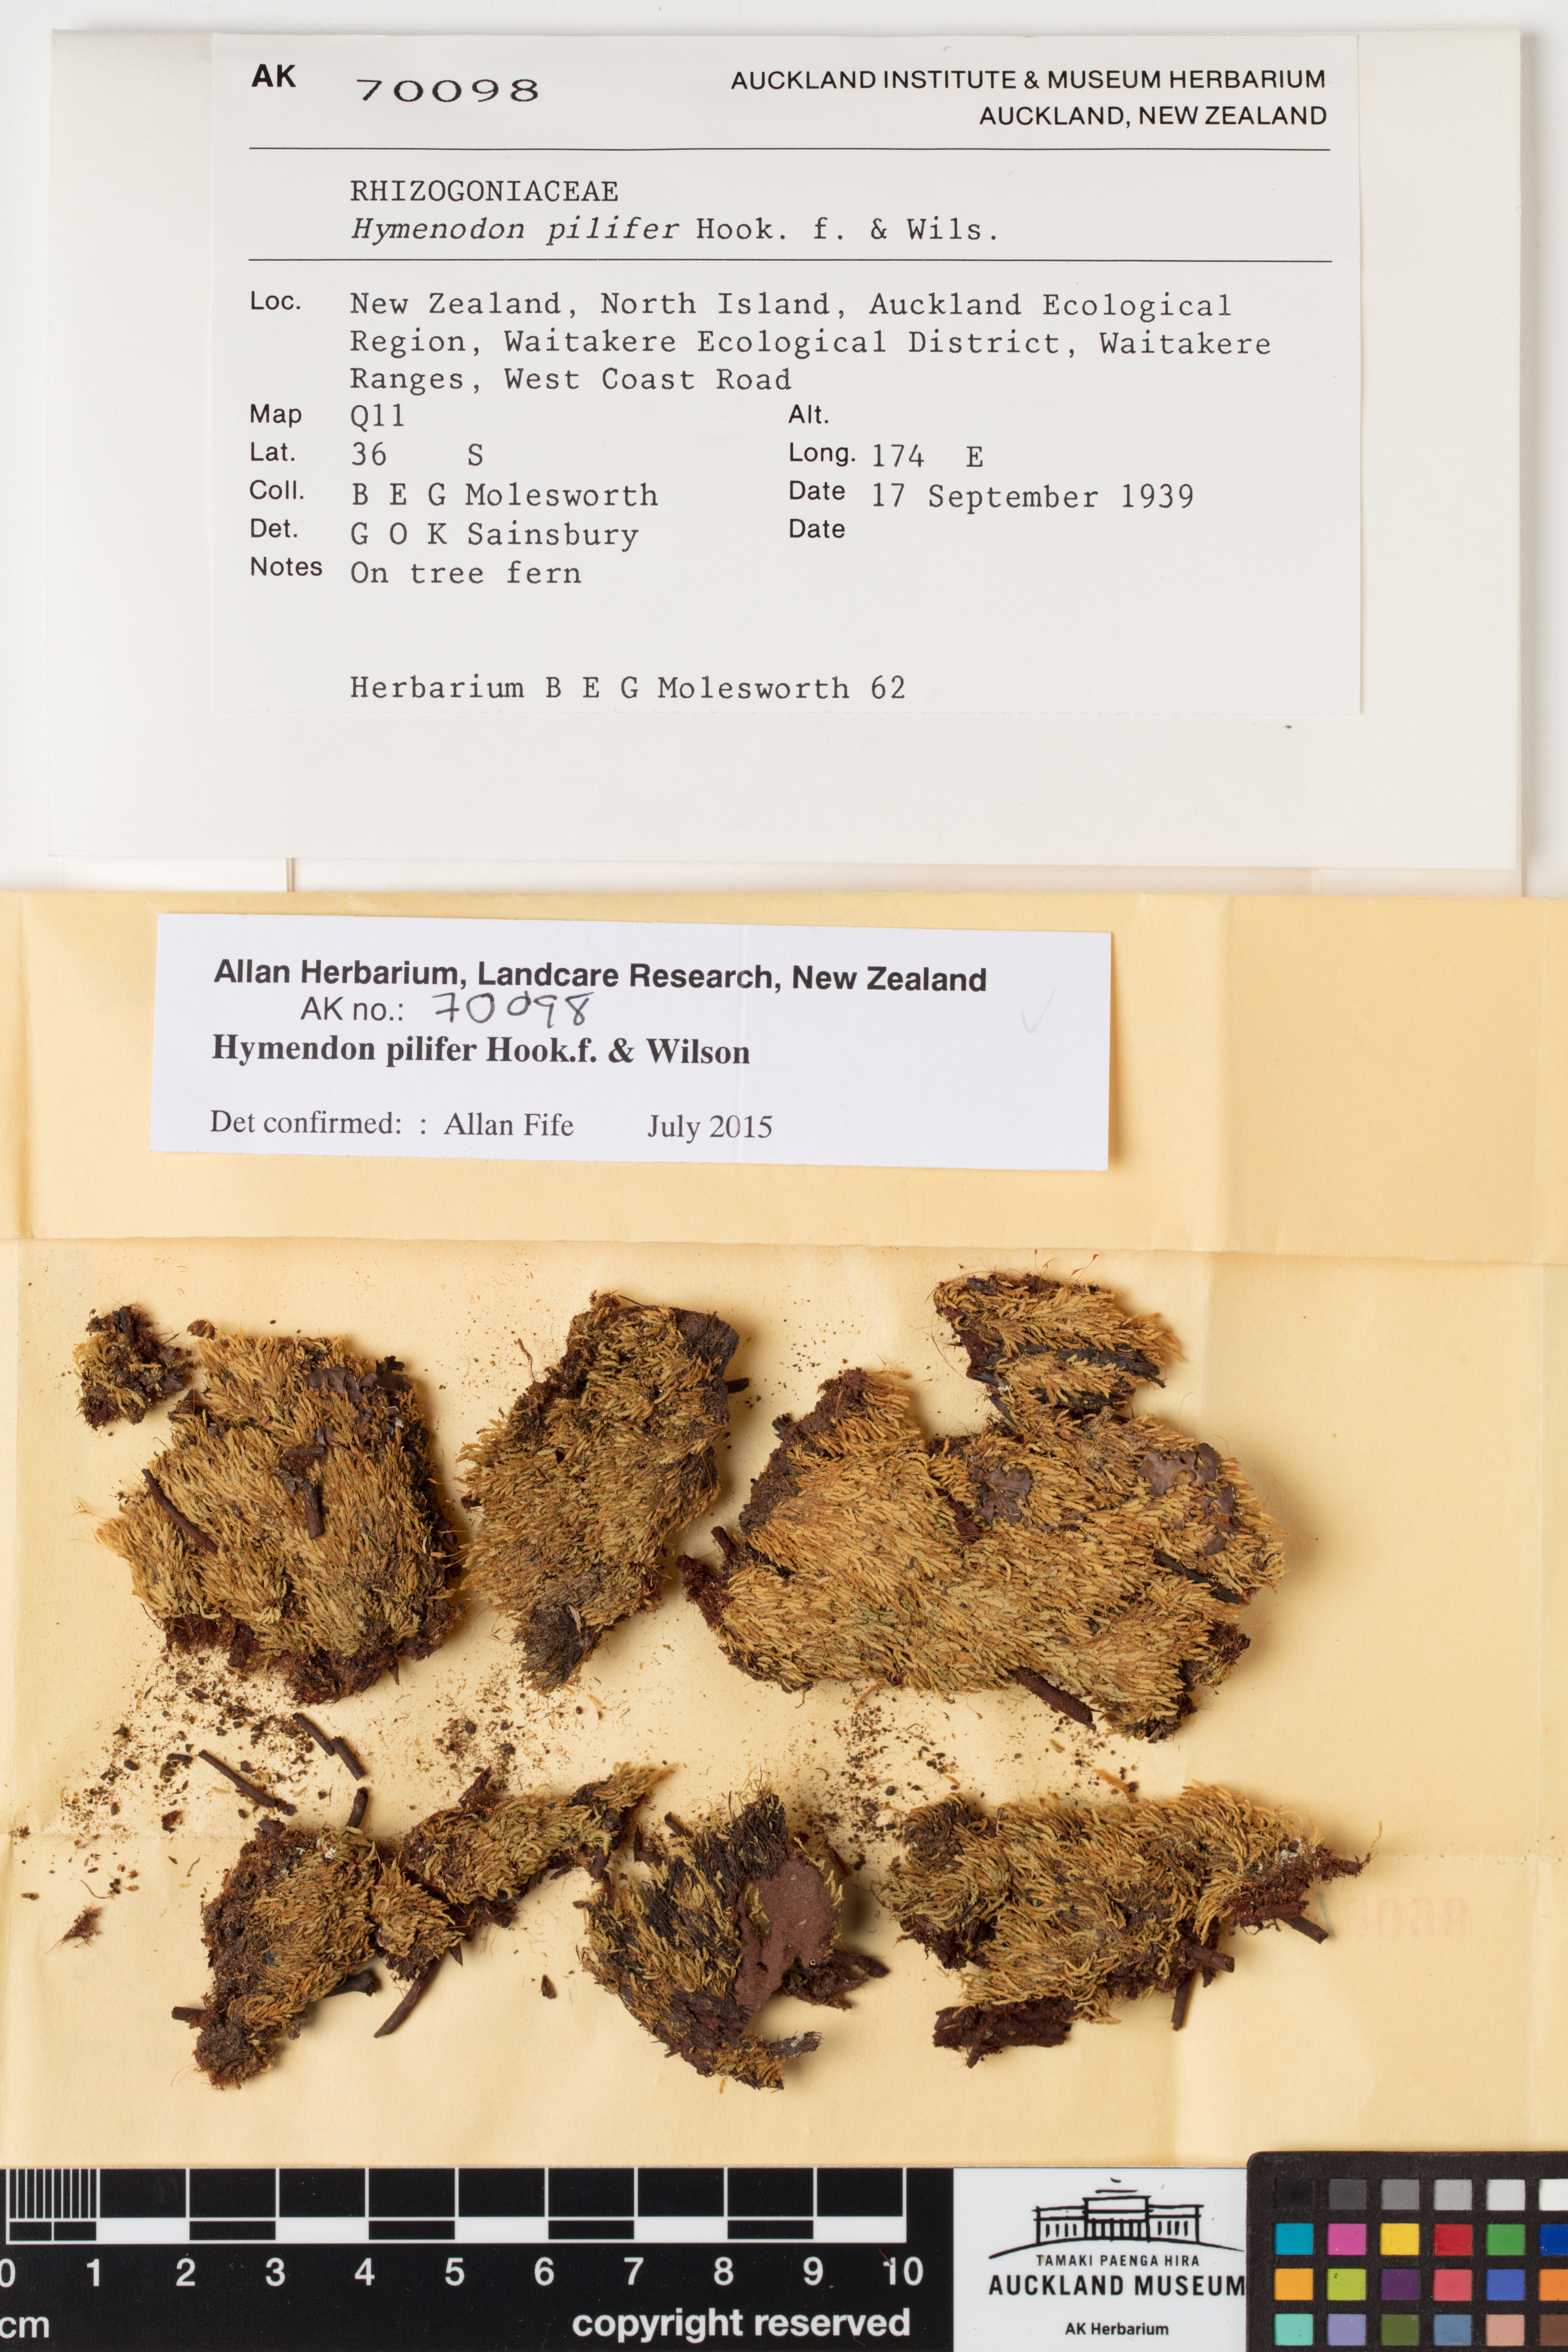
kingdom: Plantae
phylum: Bryophyta
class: Bryopsida
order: Orthodontiales
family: Orthodontiaceae
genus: Hymenodon
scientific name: Hymenodon pilifer
